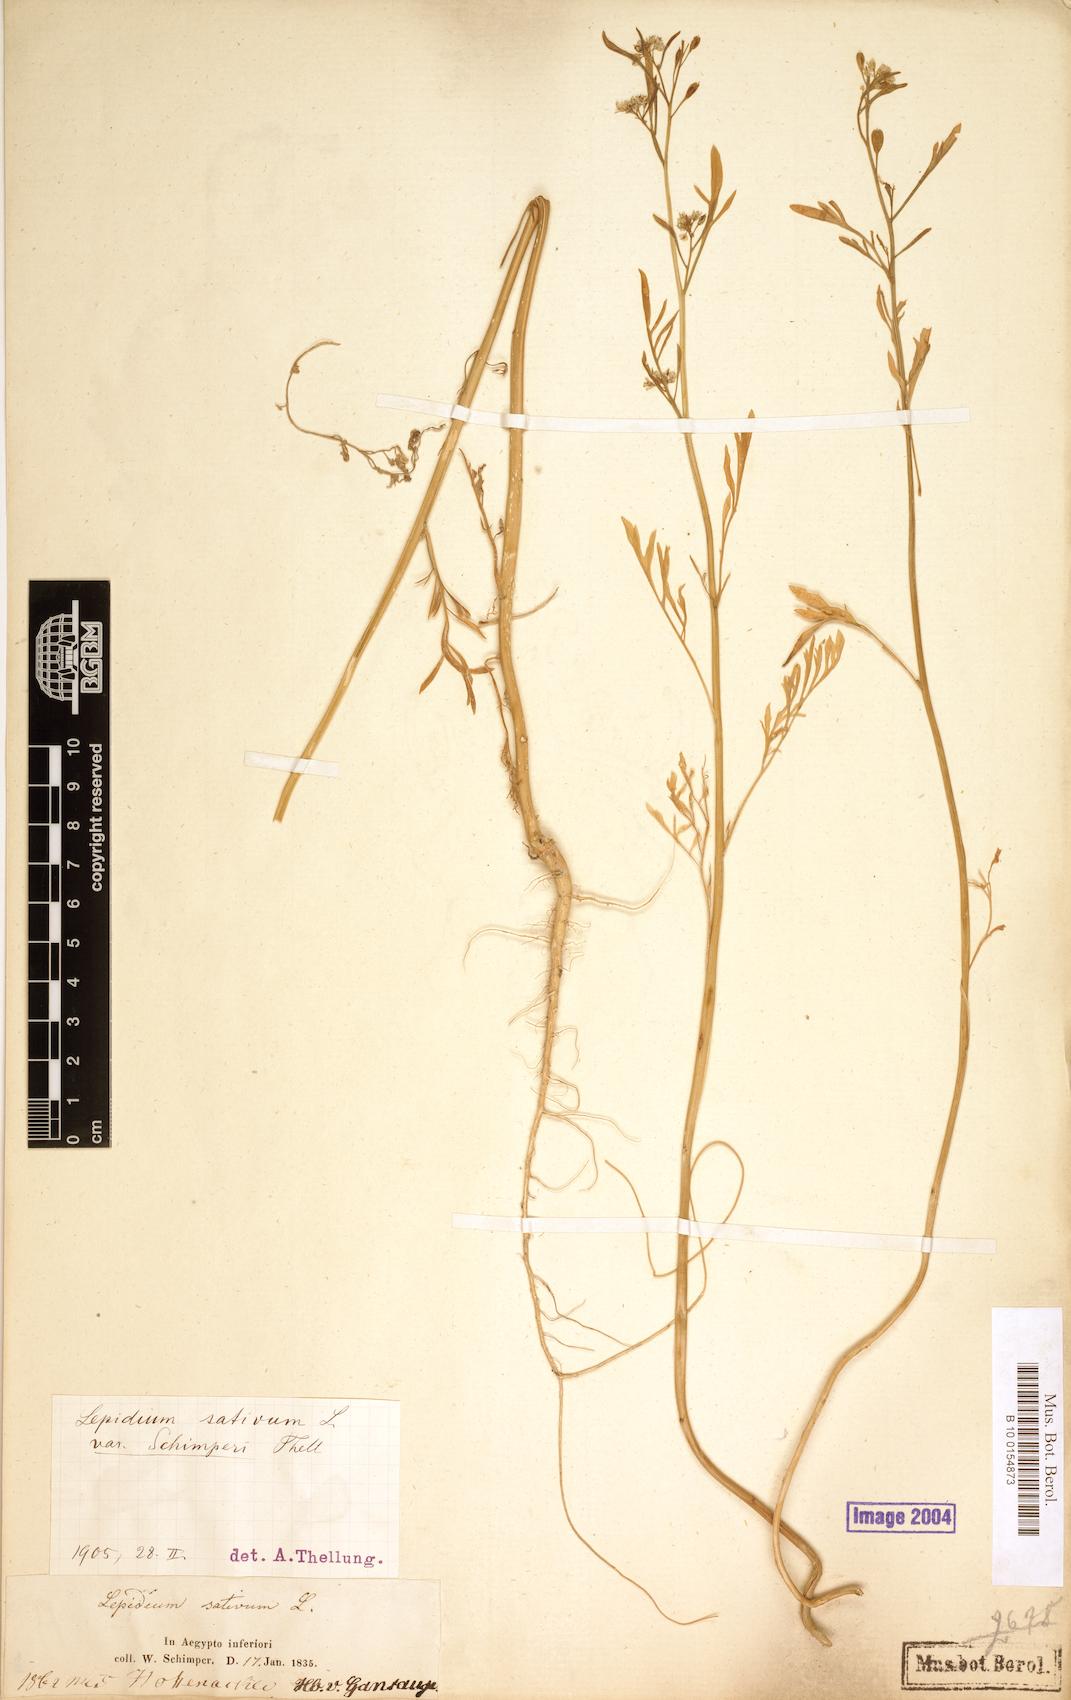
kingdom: Plantae
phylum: Tracheophyta
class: Magnoliopsida
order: Brassicales
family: Brassicaceae
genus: Lepidium
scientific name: Lepidium sativum
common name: Garden cress
